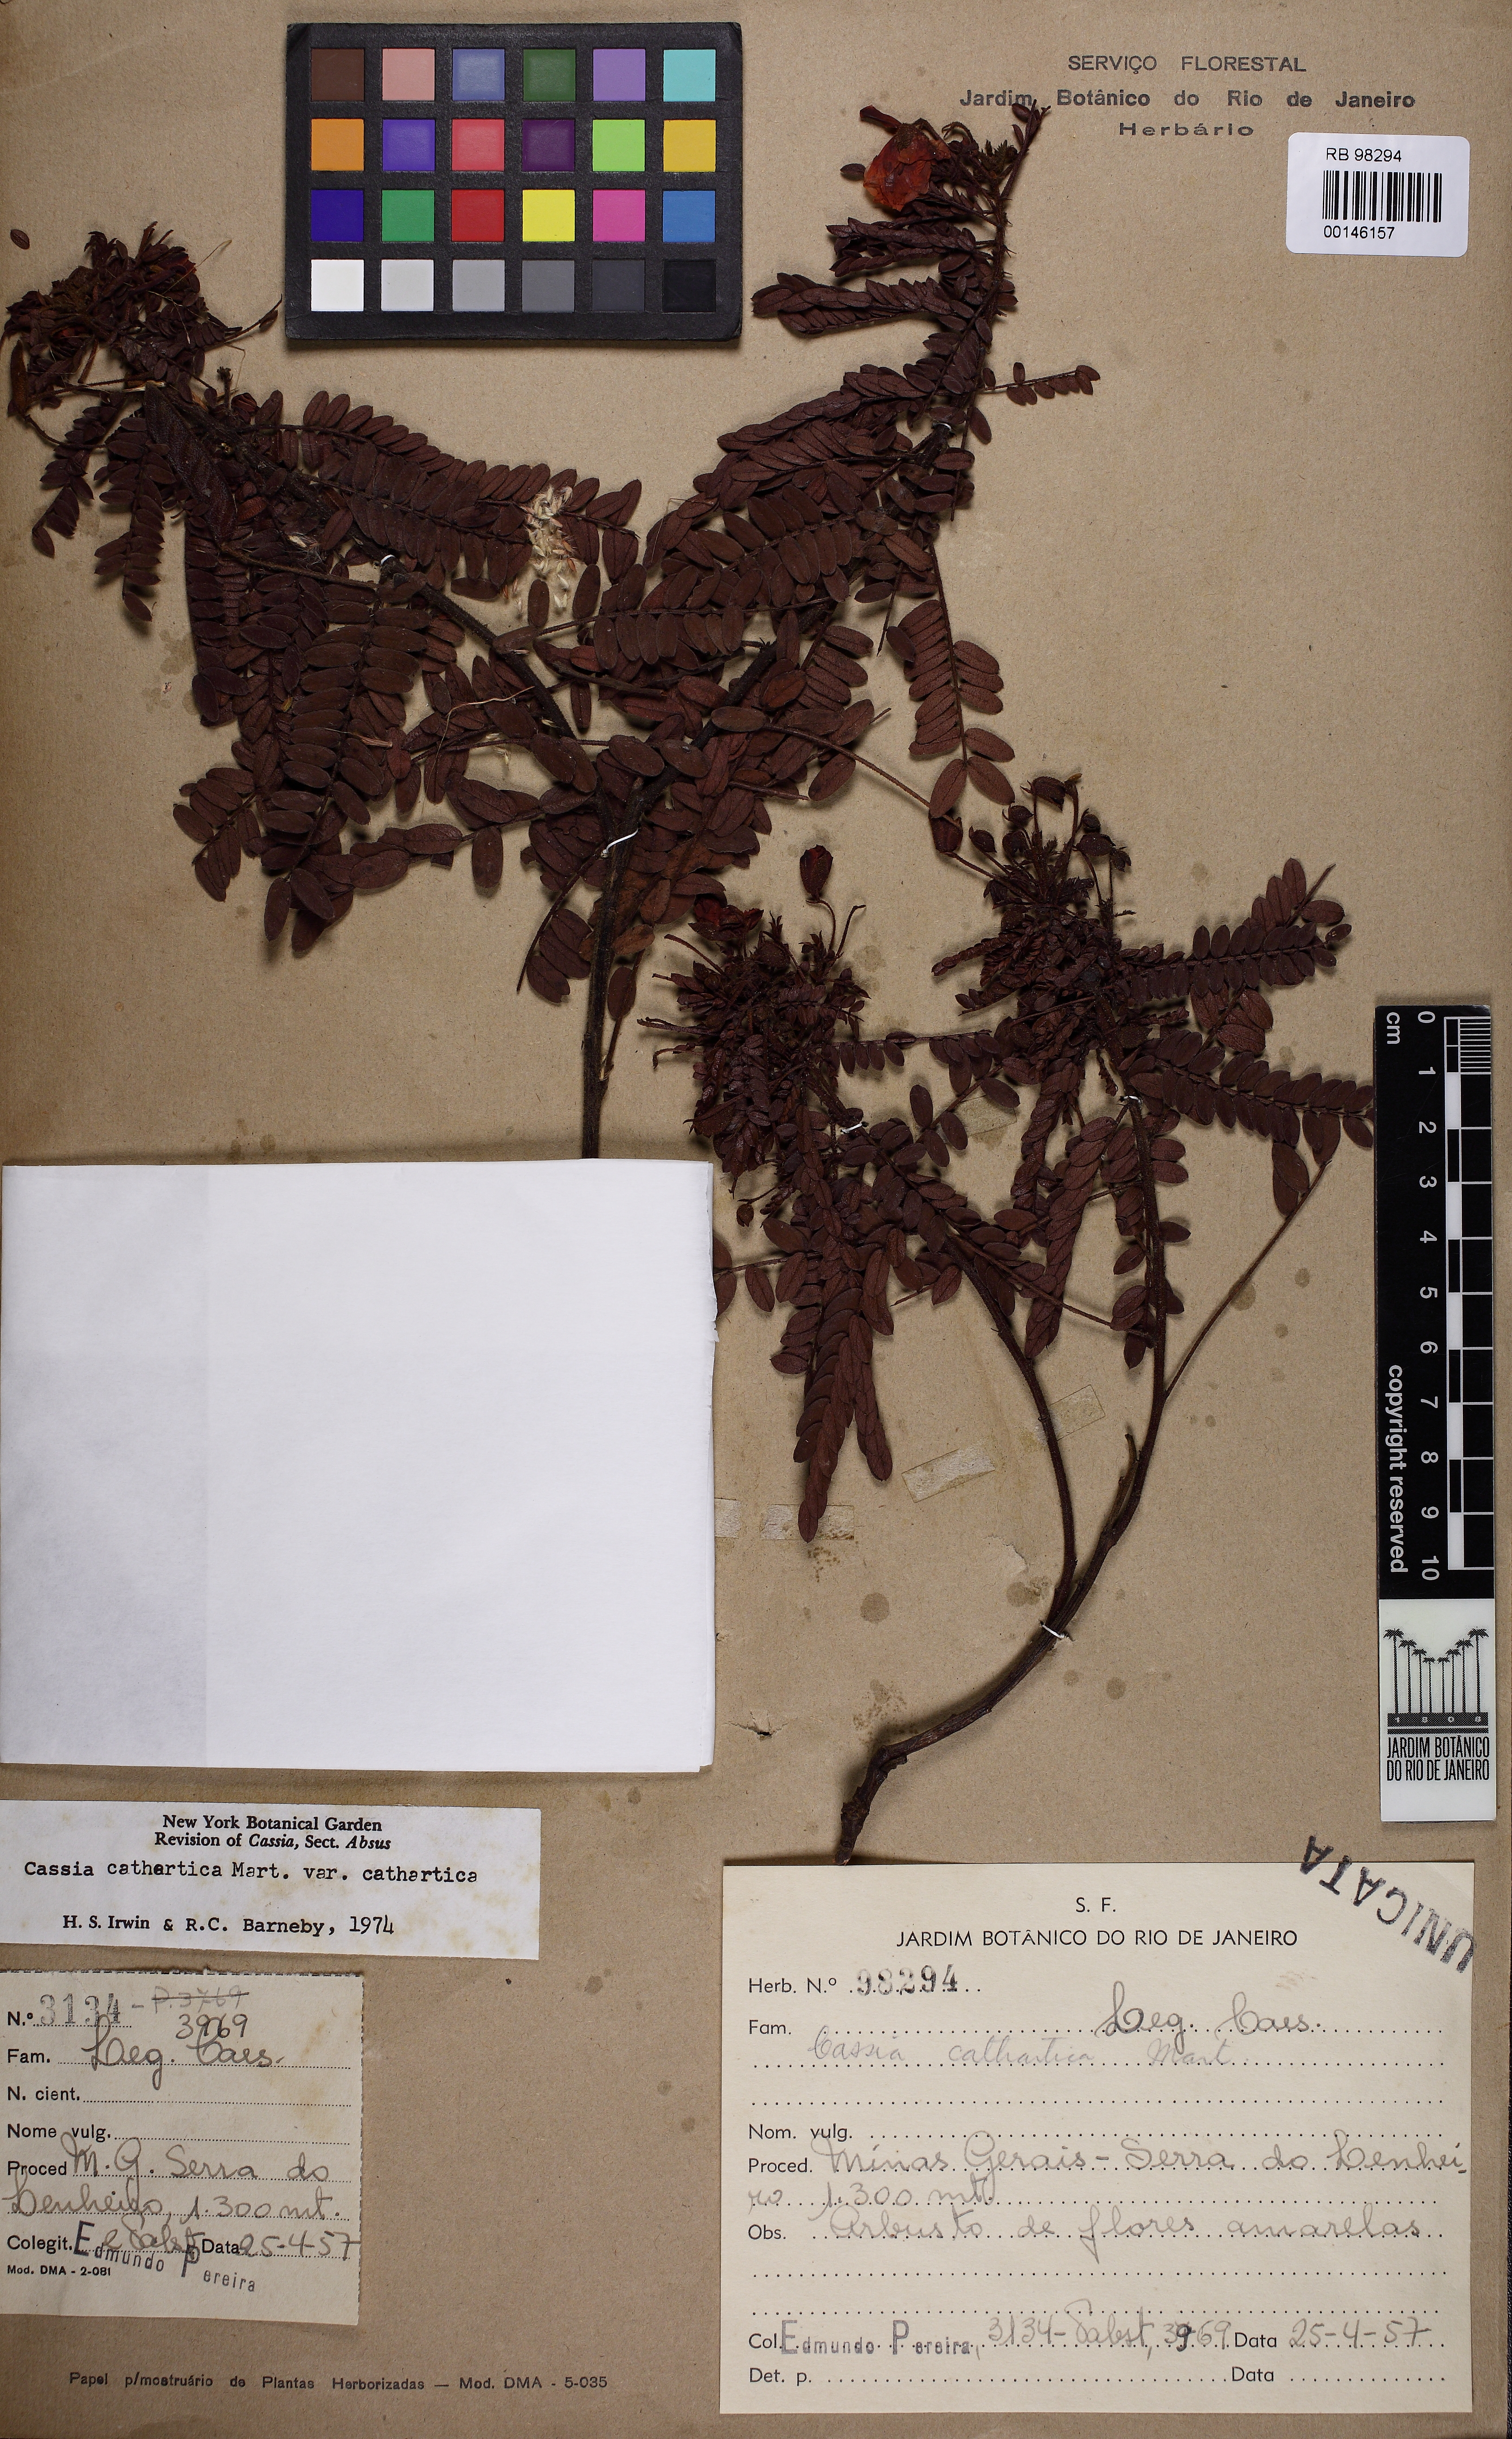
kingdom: Plantae
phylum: Tracheophyta
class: Magnoliopsida
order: Fabales
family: Fabaceae
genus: Chamaecrista
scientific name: Chamaecrista cathartica
